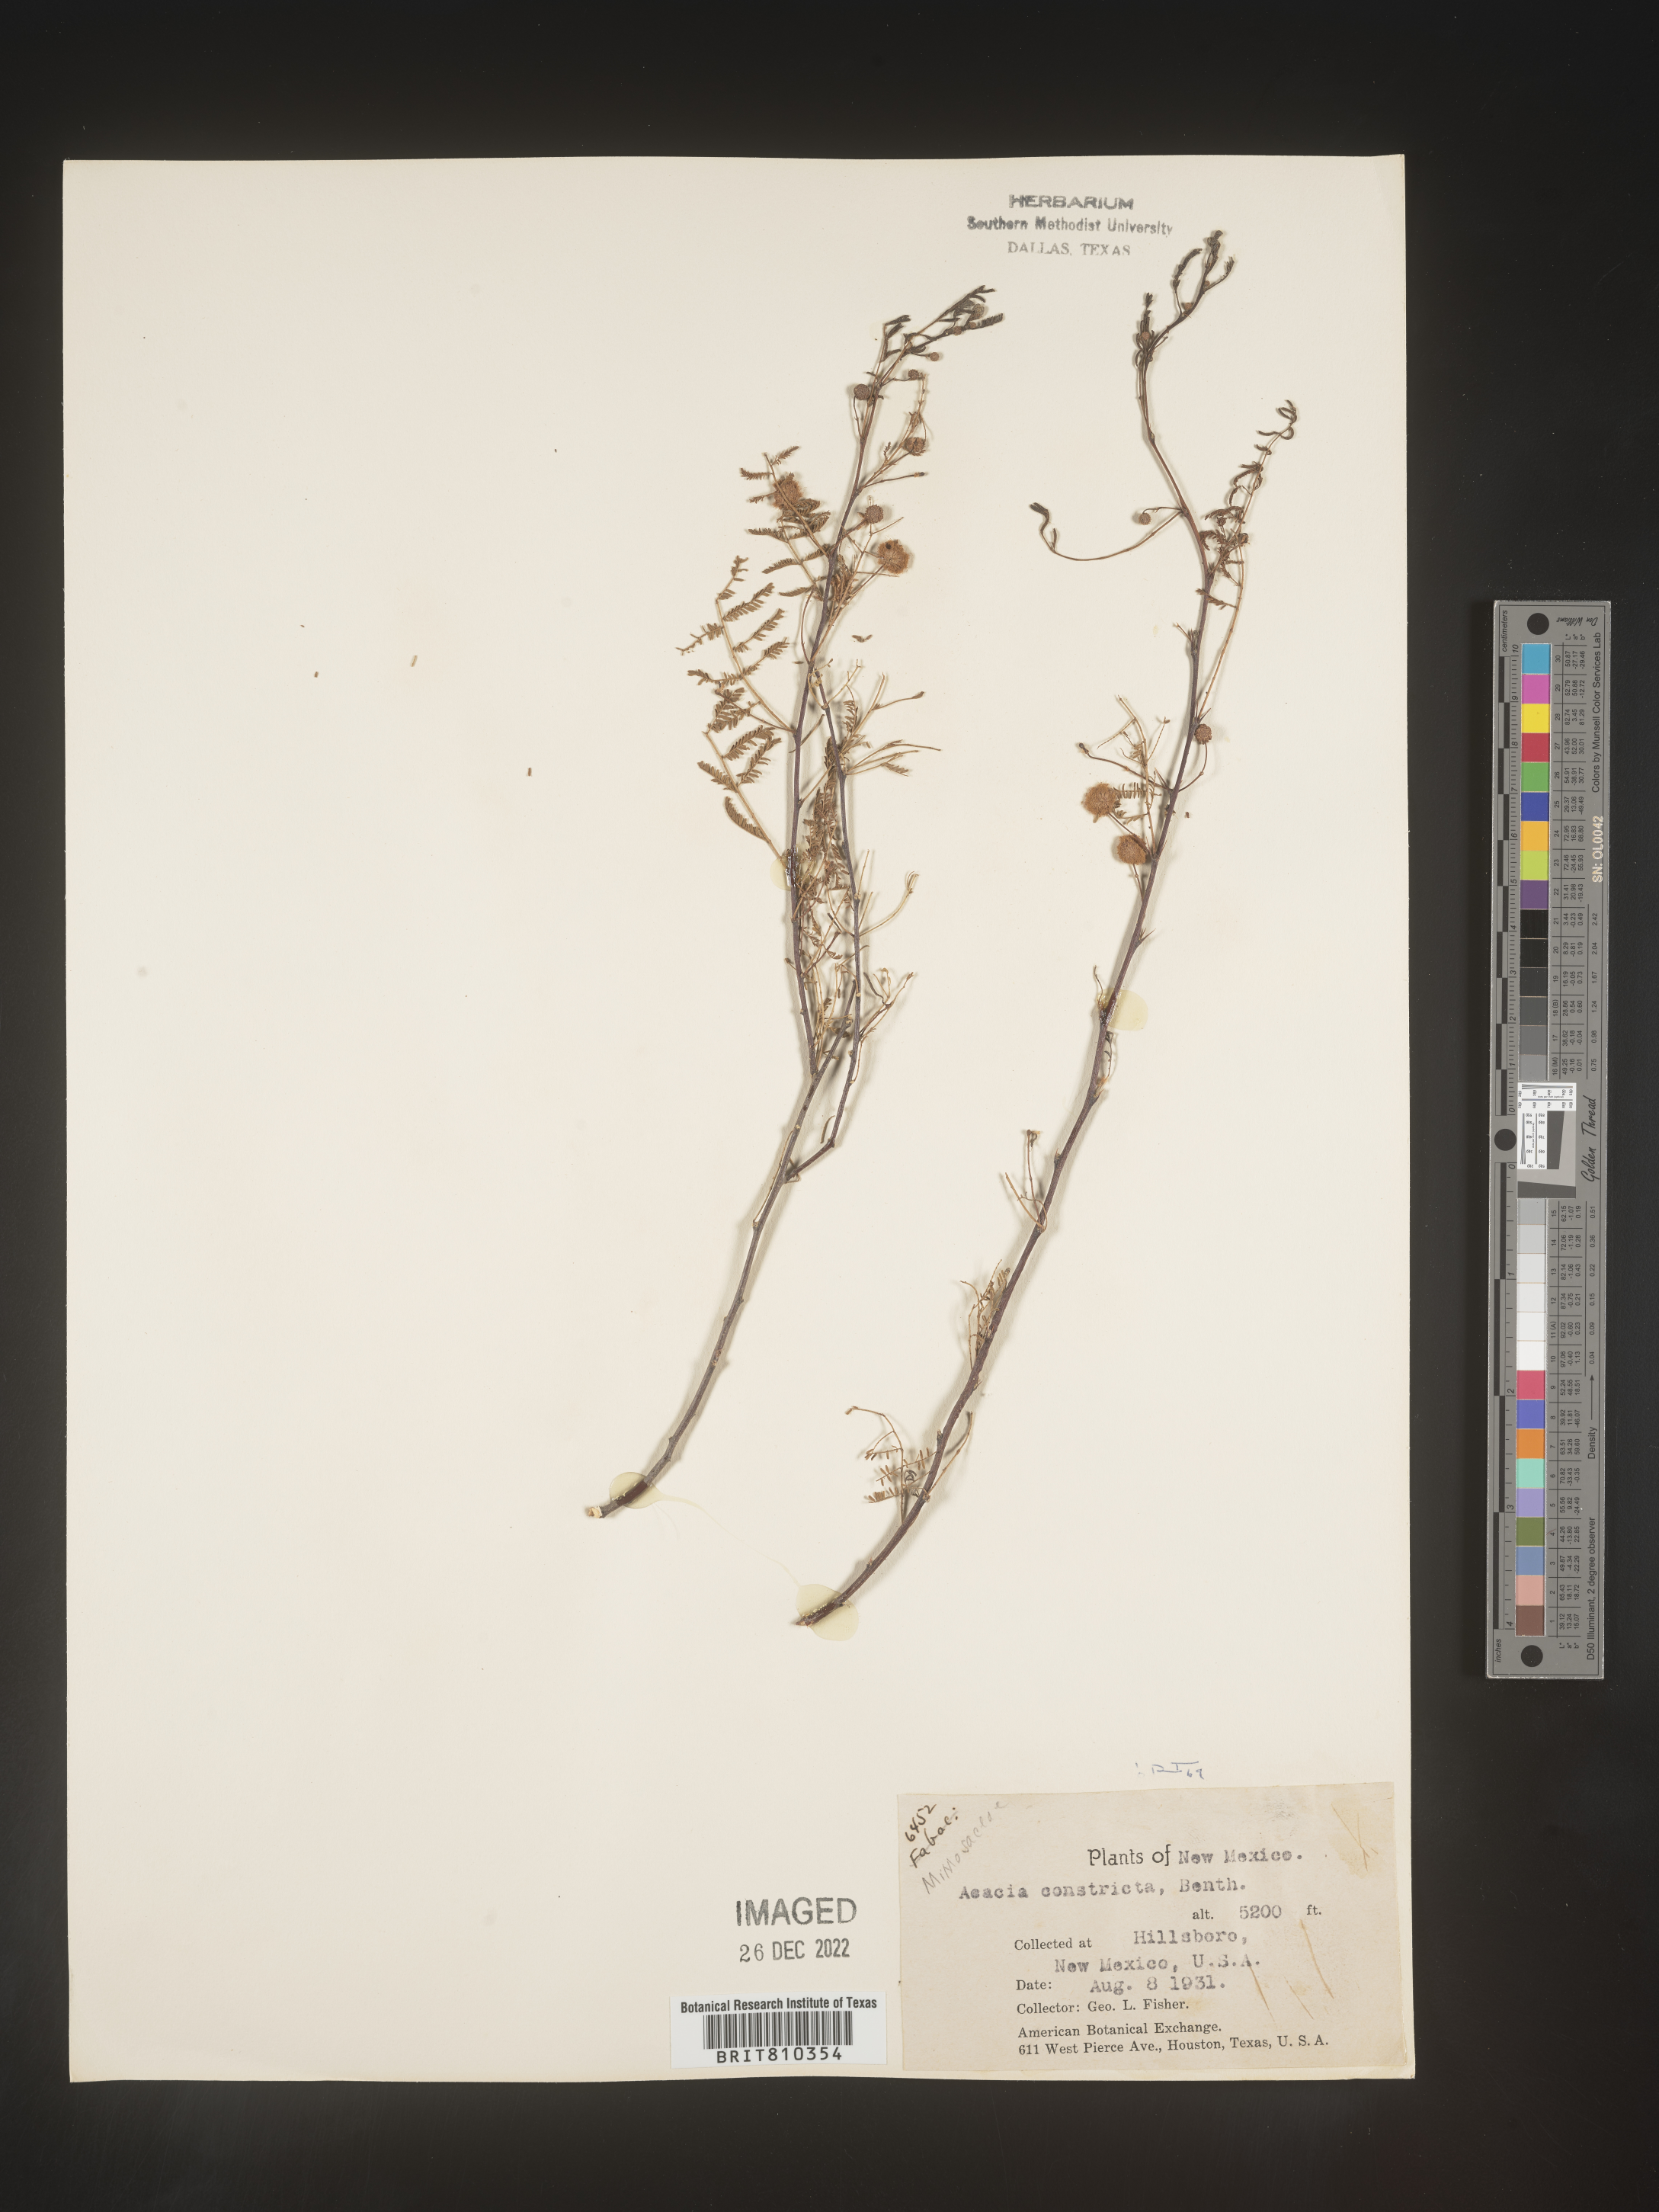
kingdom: Plantae
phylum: Tracheophyta
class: Magnoliopsida
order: Fabales
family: Fabaceae
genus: Acacia
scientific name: Acacia
